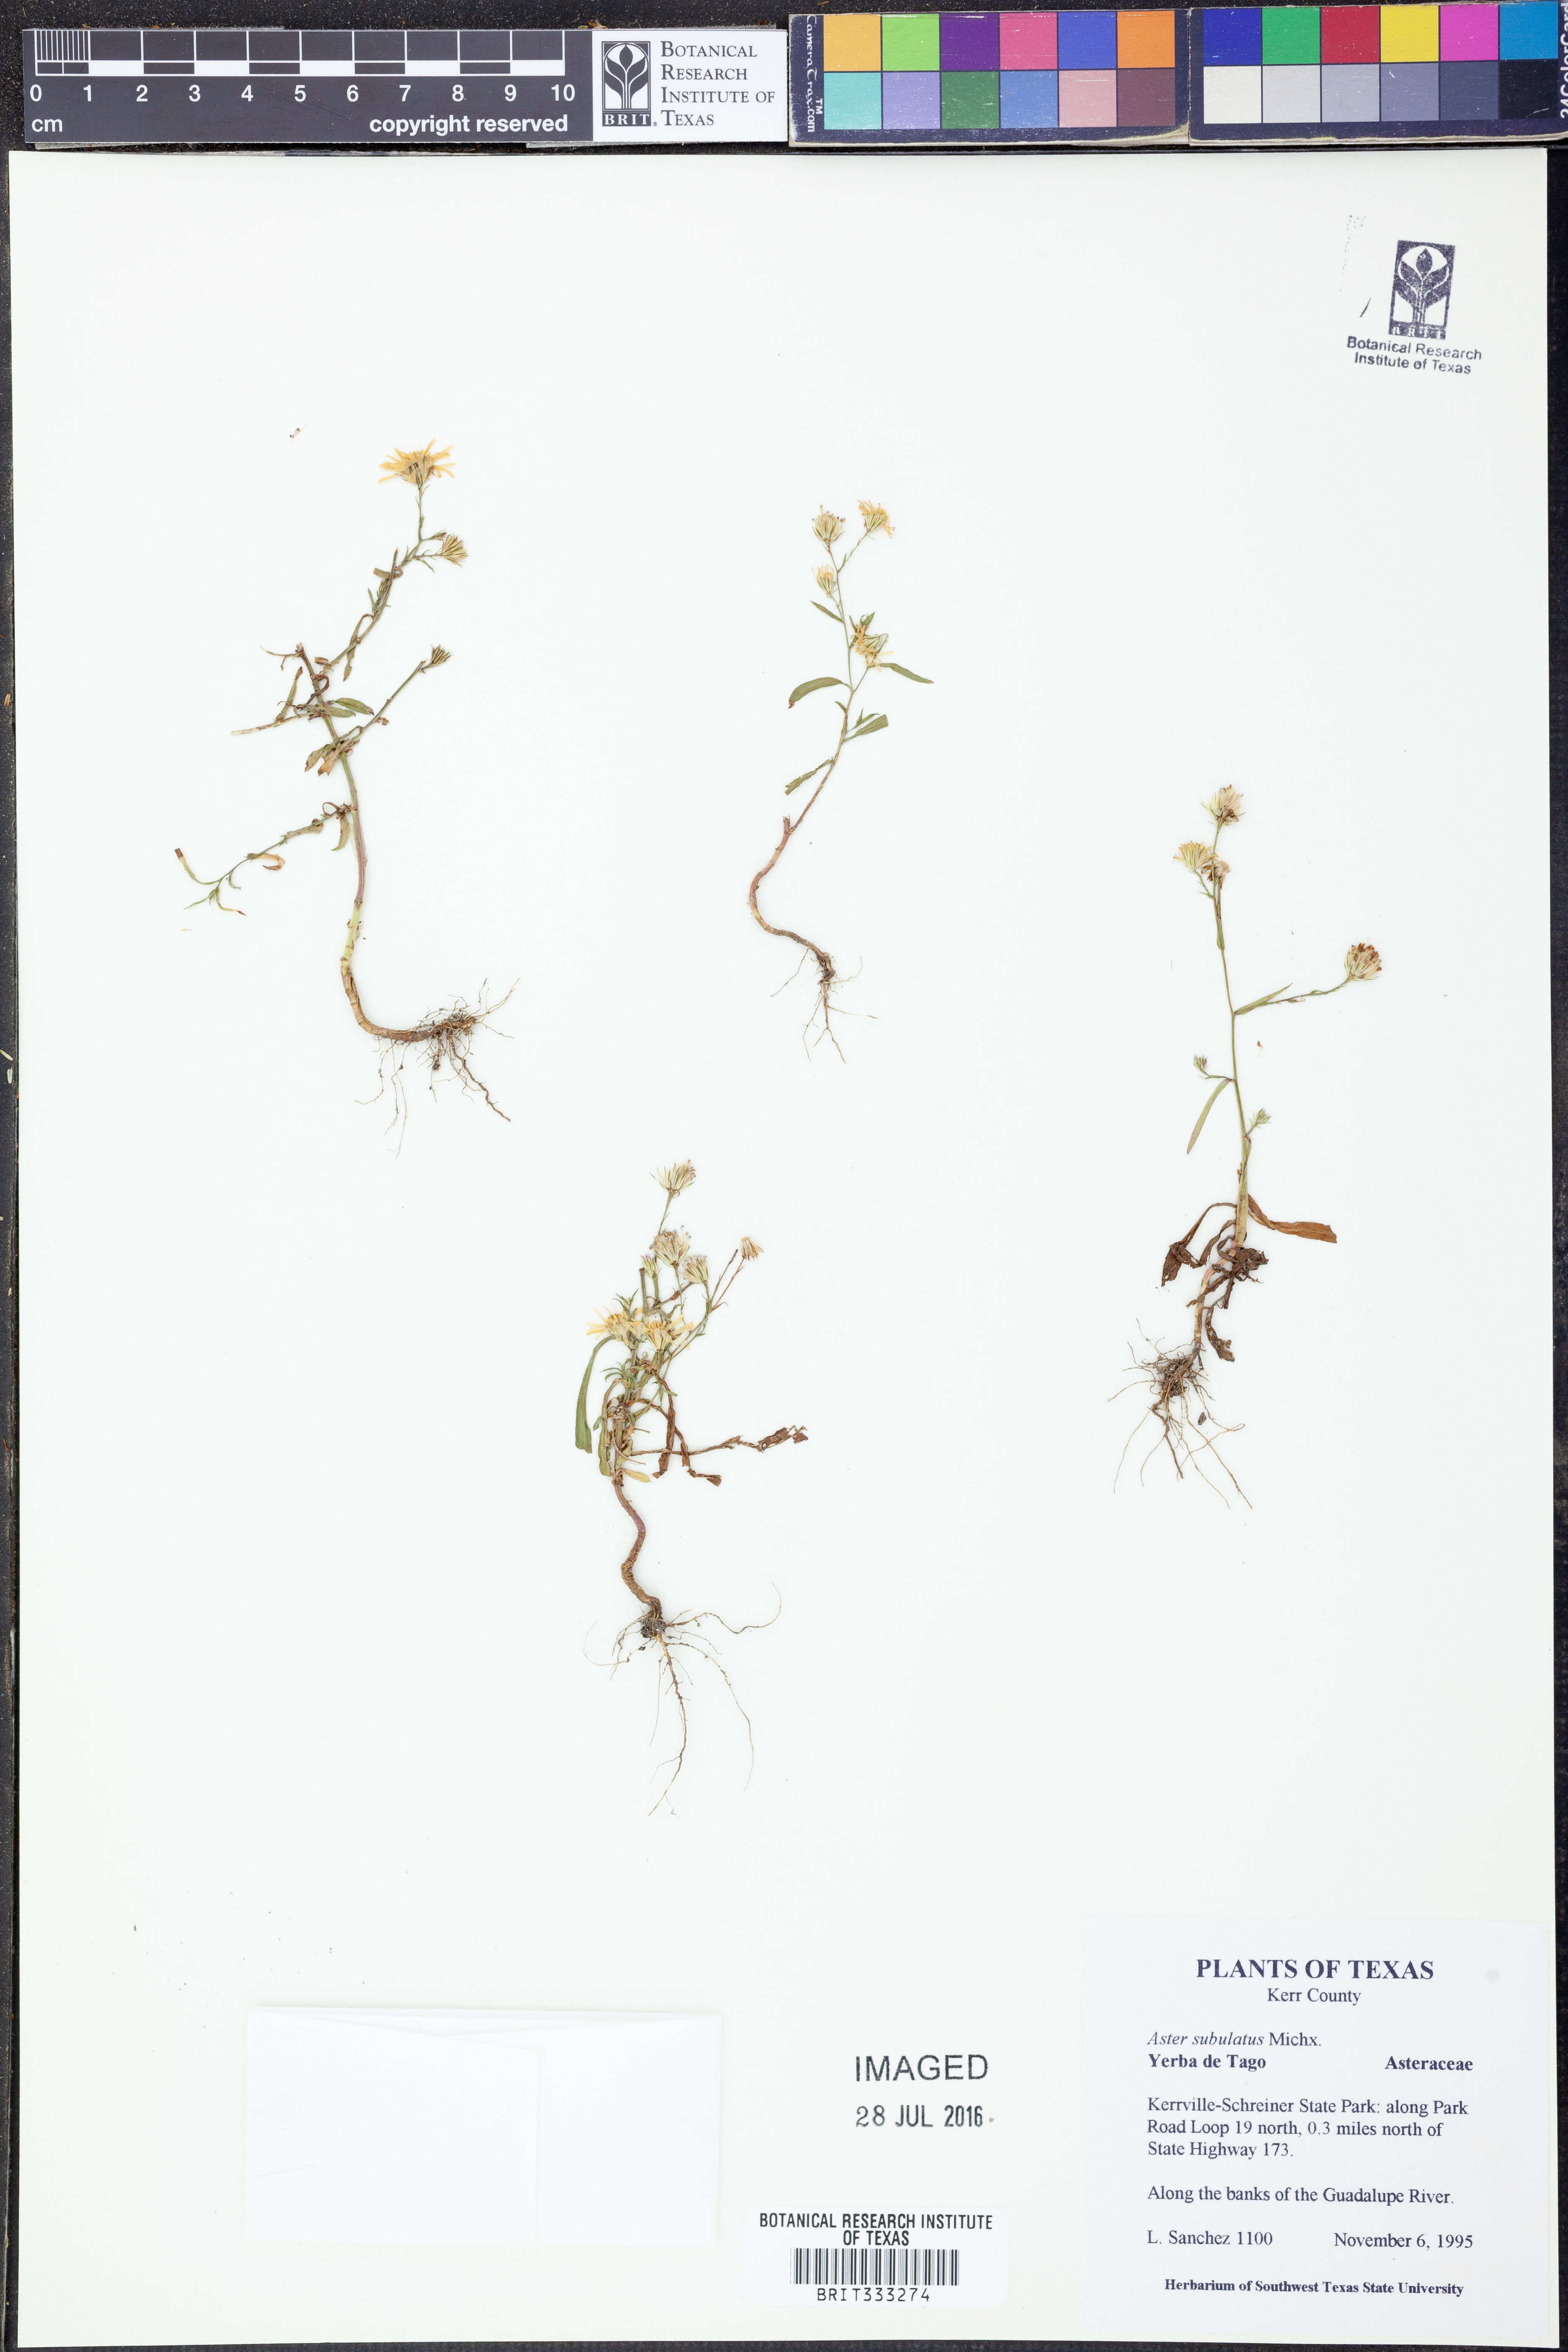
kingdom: Plantae
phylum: Tracheophyta
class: Magnoliopsida
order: Asterales
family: Asteraceae
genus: Symphyotrichum
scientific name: Symphyotrichum subulatum
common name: Annual saltmarsh aster
